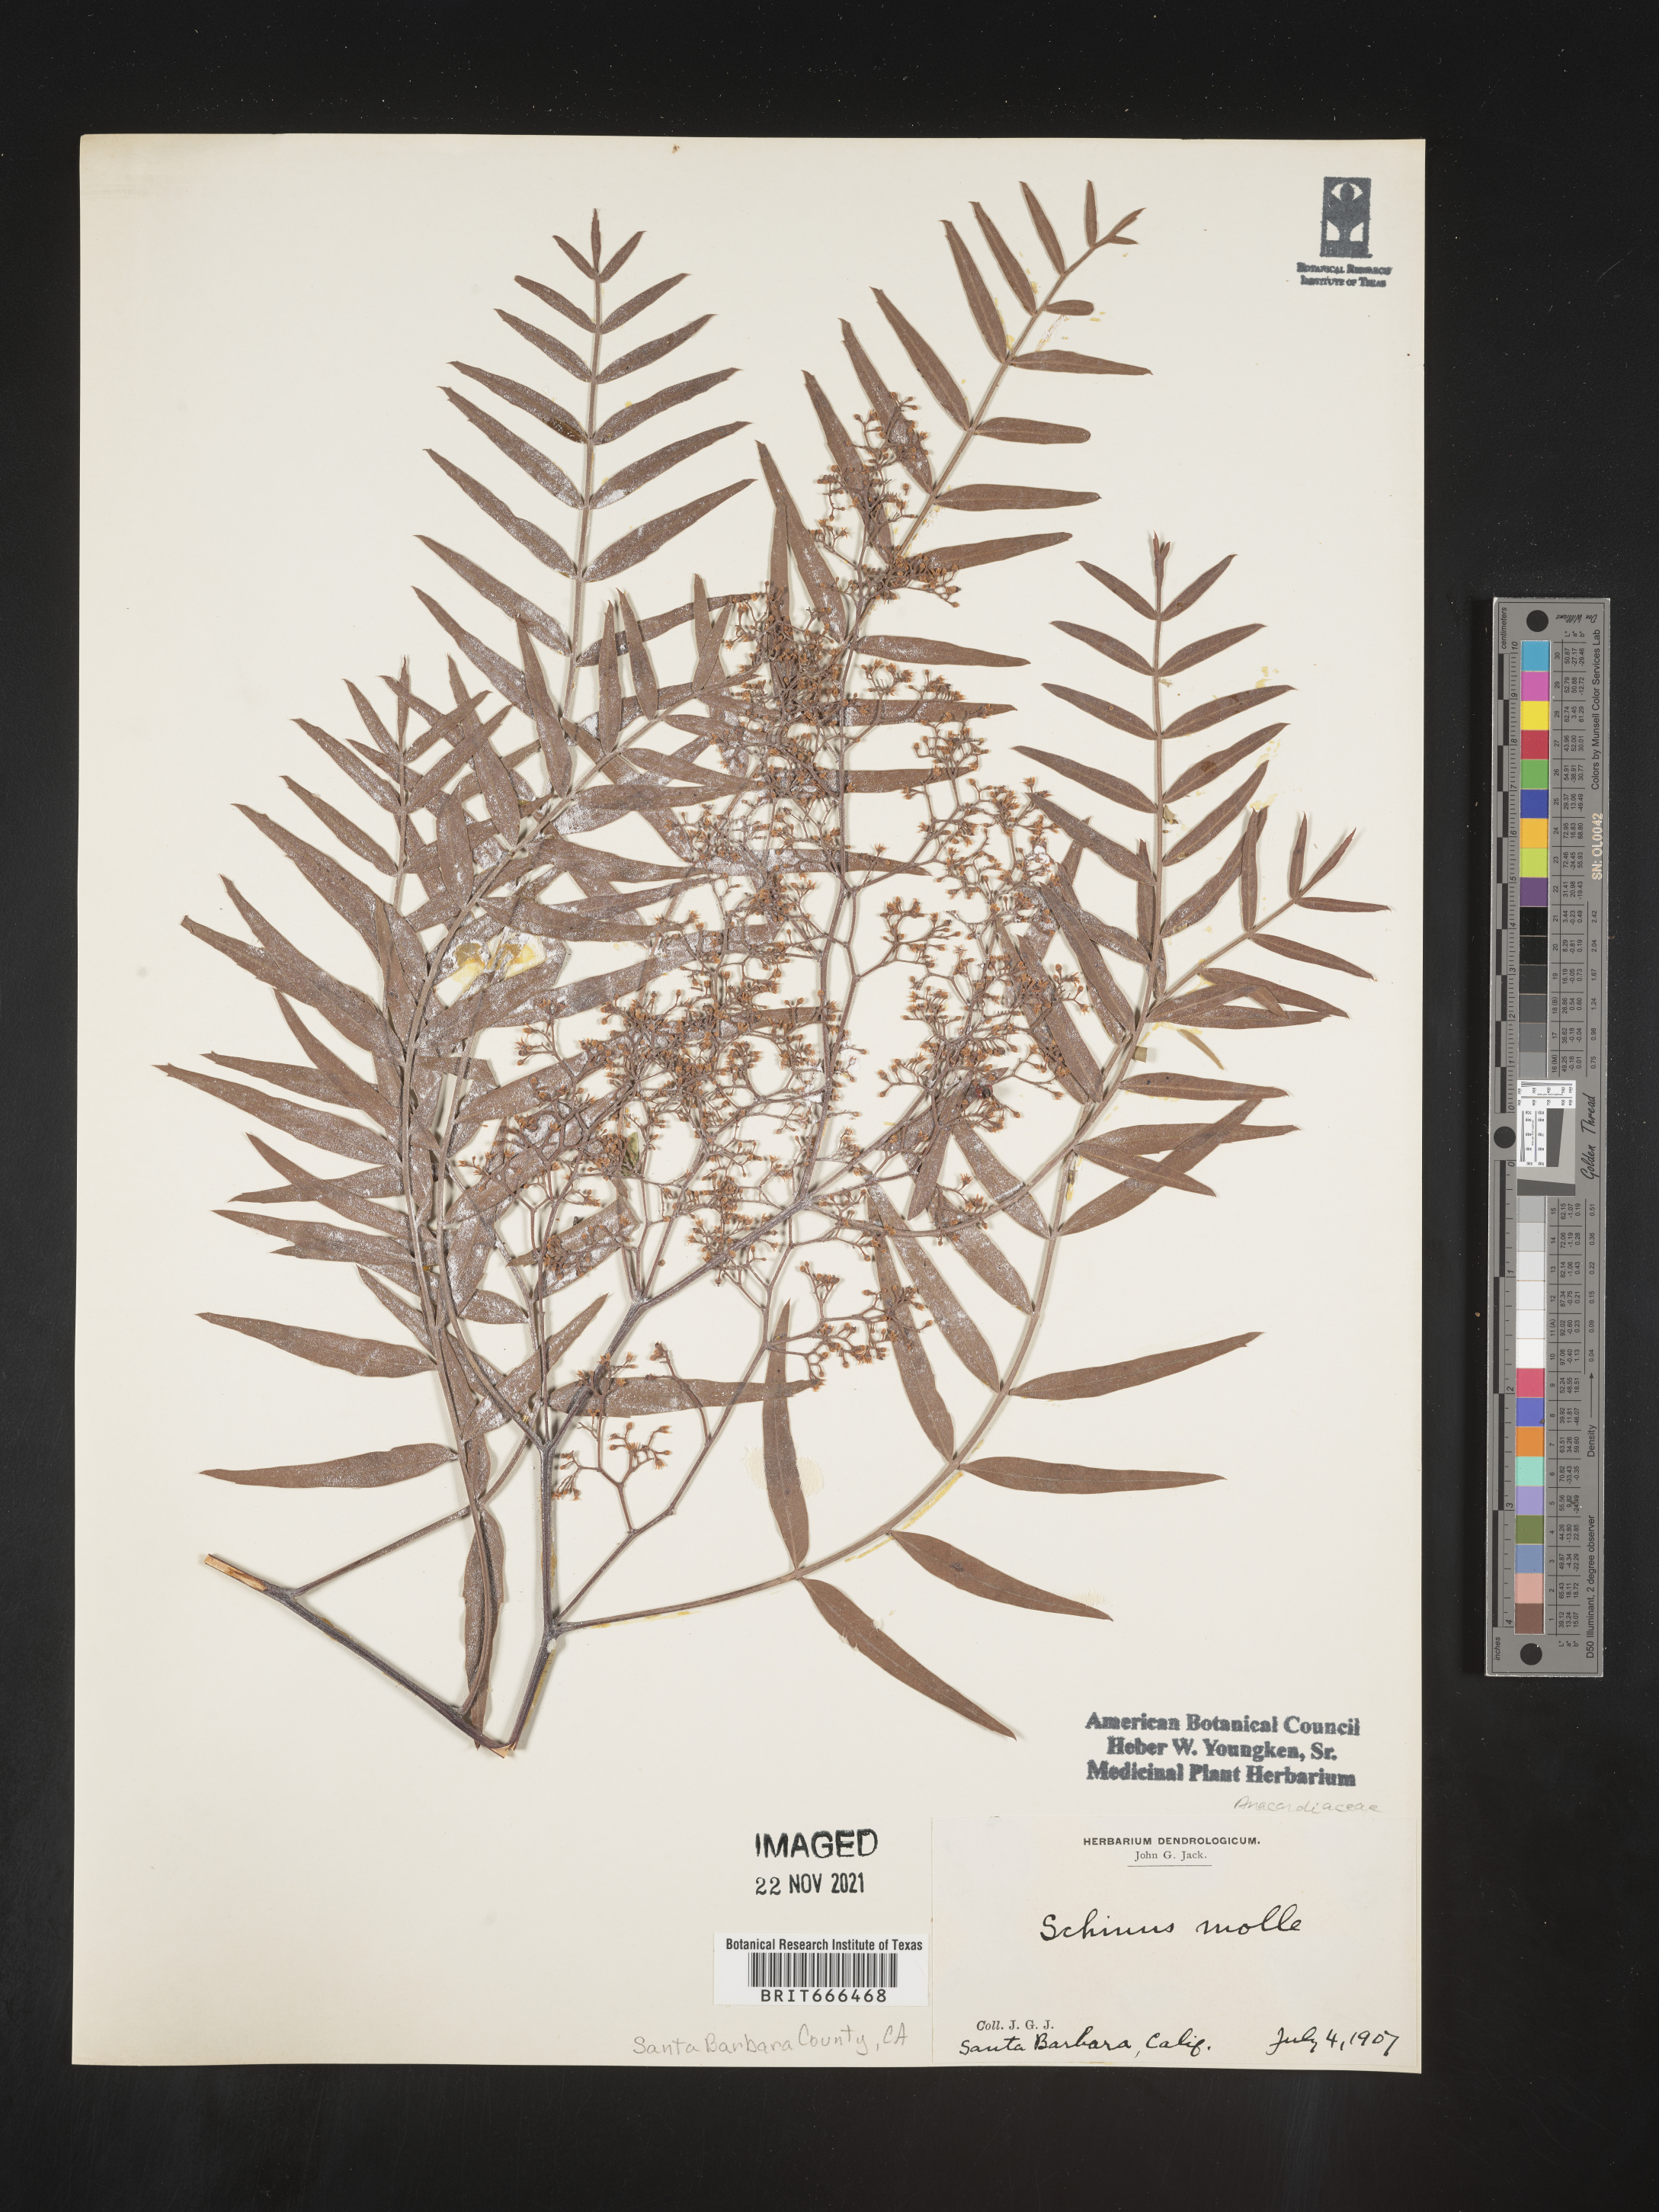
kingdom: Plantae
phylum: Tracheophyta
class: Magnoliopsida
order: Sapindales
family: Anacardiaceae
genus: Schinus
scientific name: Schinus
